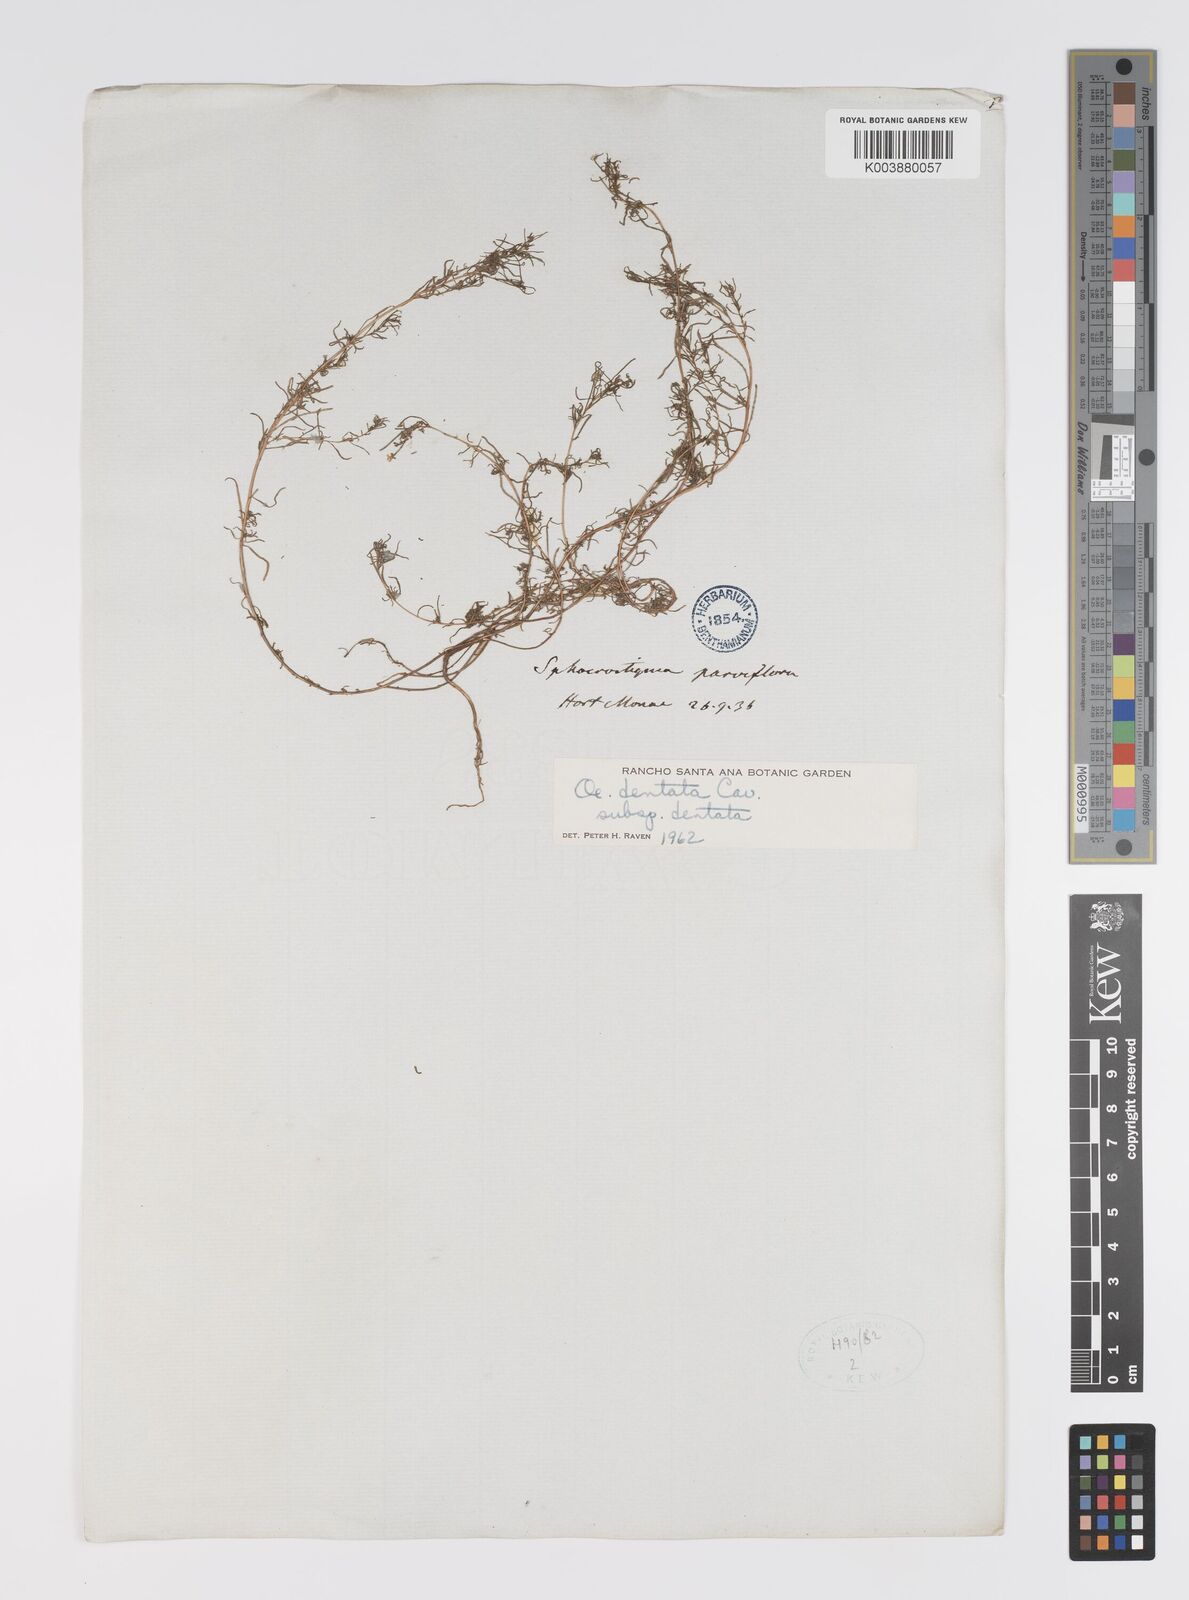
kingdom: Plantae
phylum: Tracheophyta
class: Magnoliopsida
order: Myrtales
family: Onagraceae
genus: Camissonia
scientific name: Camissonia dentata
